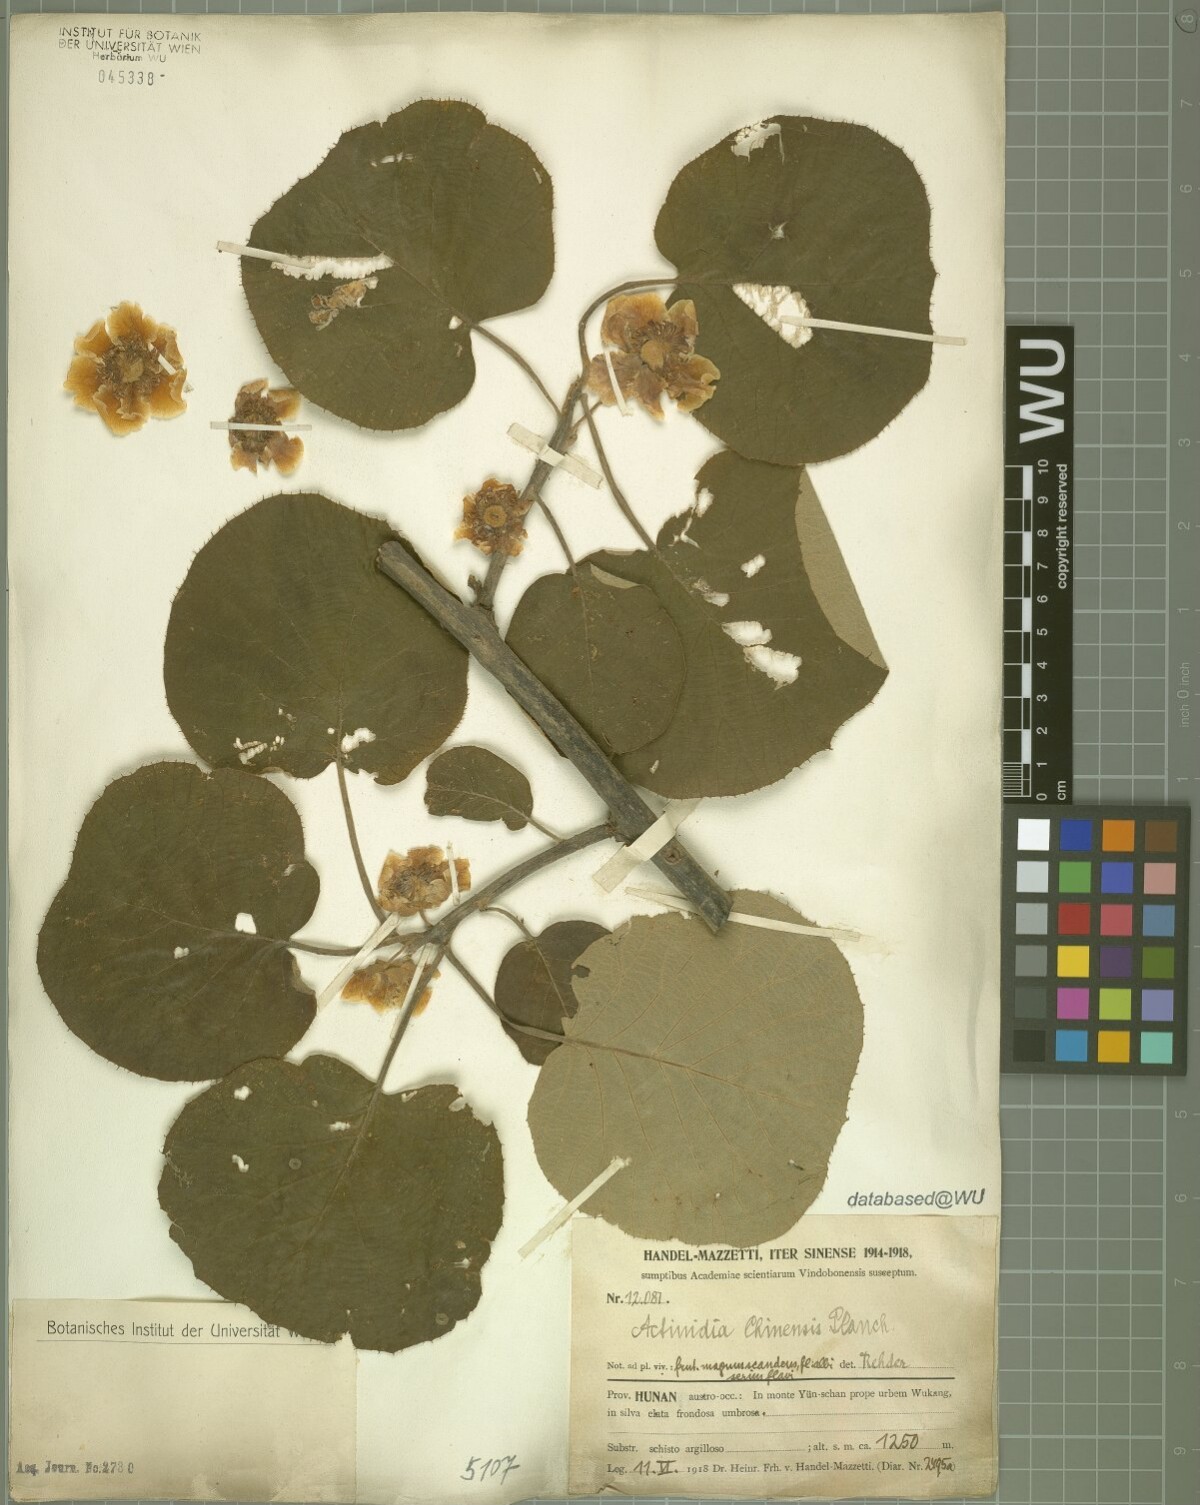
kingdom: Plantae
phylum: Tracheophyta
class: Magnoliopsida
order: Ericales
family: Actinidiaceae
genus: Actinidia
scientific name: Actinidia chinensis
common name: Kiwi
